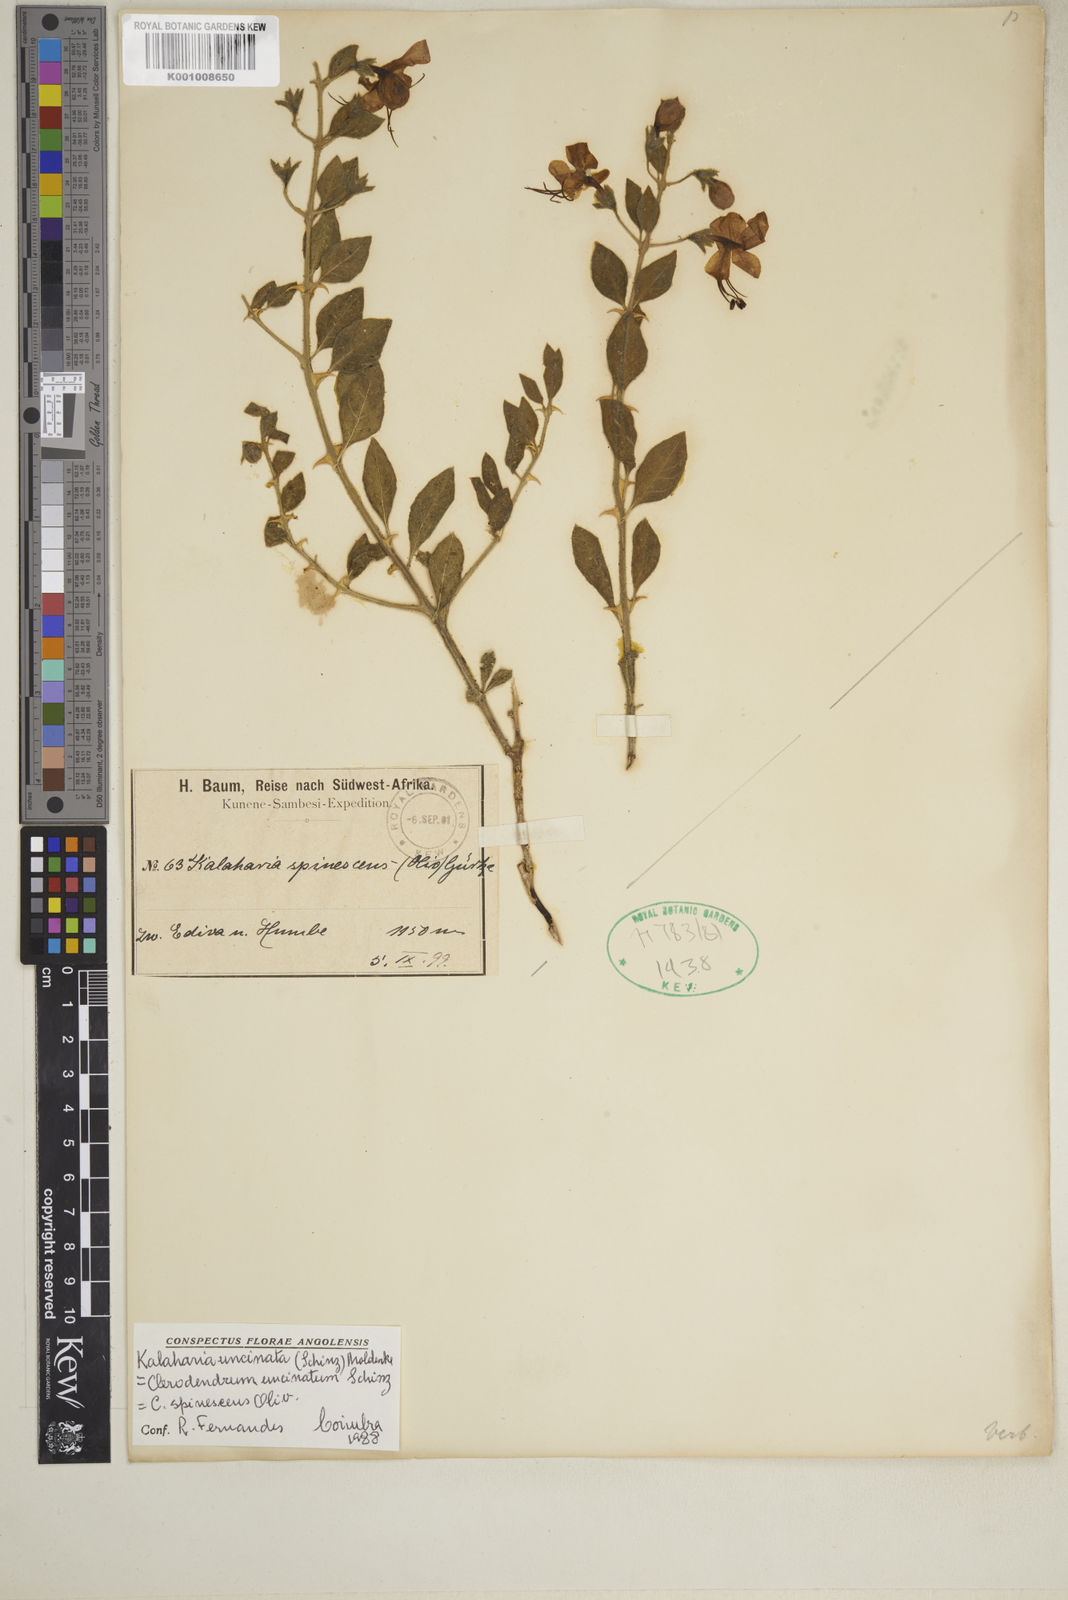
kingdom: Plantae
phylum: Tracheophyta
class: Magnoliopsida
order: Lamiales
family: Lamiaceae
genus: Kalaharia
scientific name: Kalaharia uncinata
